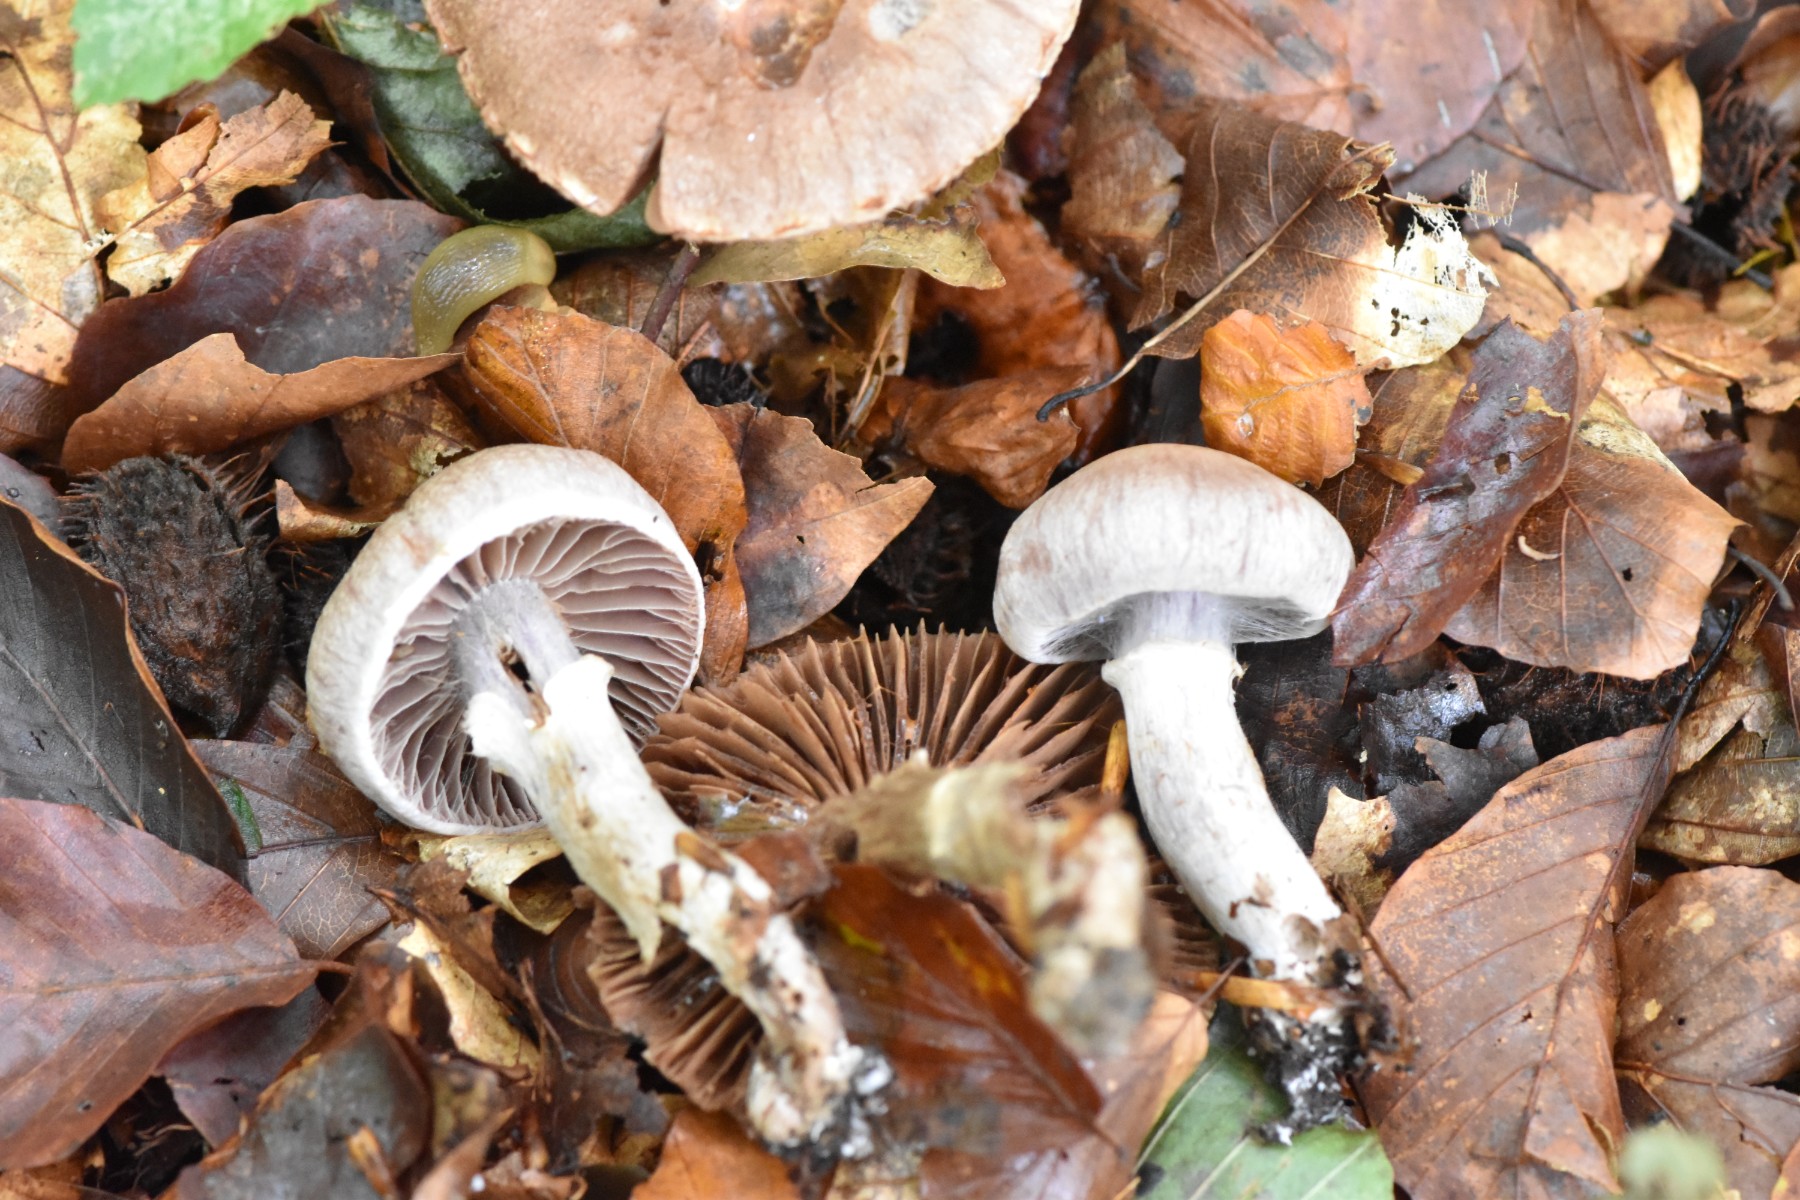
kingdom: Fungi
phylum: Basidiomycota
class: Agaricomycetes
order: Agaricales
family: Cortinariaceae
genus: Cortinarius
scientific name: Cortinarius torvus
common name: champignonagtig slørhat
